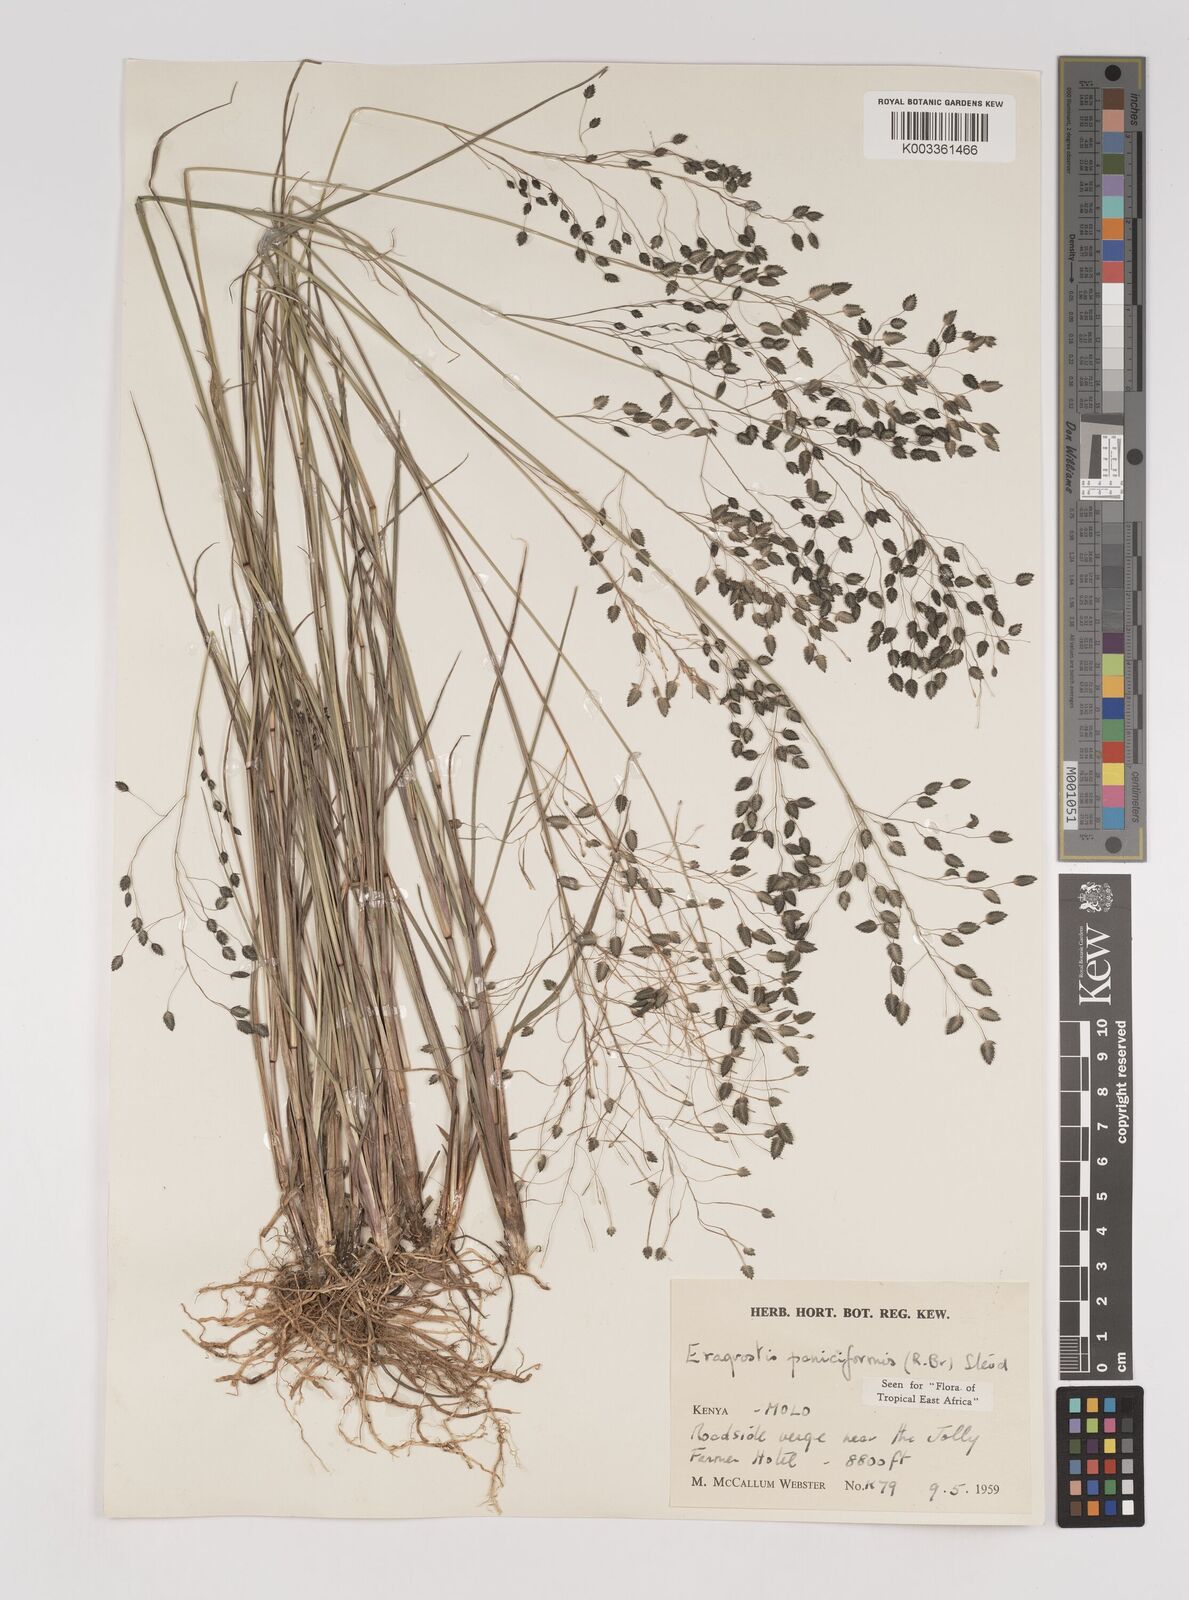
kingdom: Plantae
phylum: Tracheophyta
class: Liliopsida
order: Poales
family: Poaceae
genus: Eragrostis
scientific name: Eragrostis paniciformis
